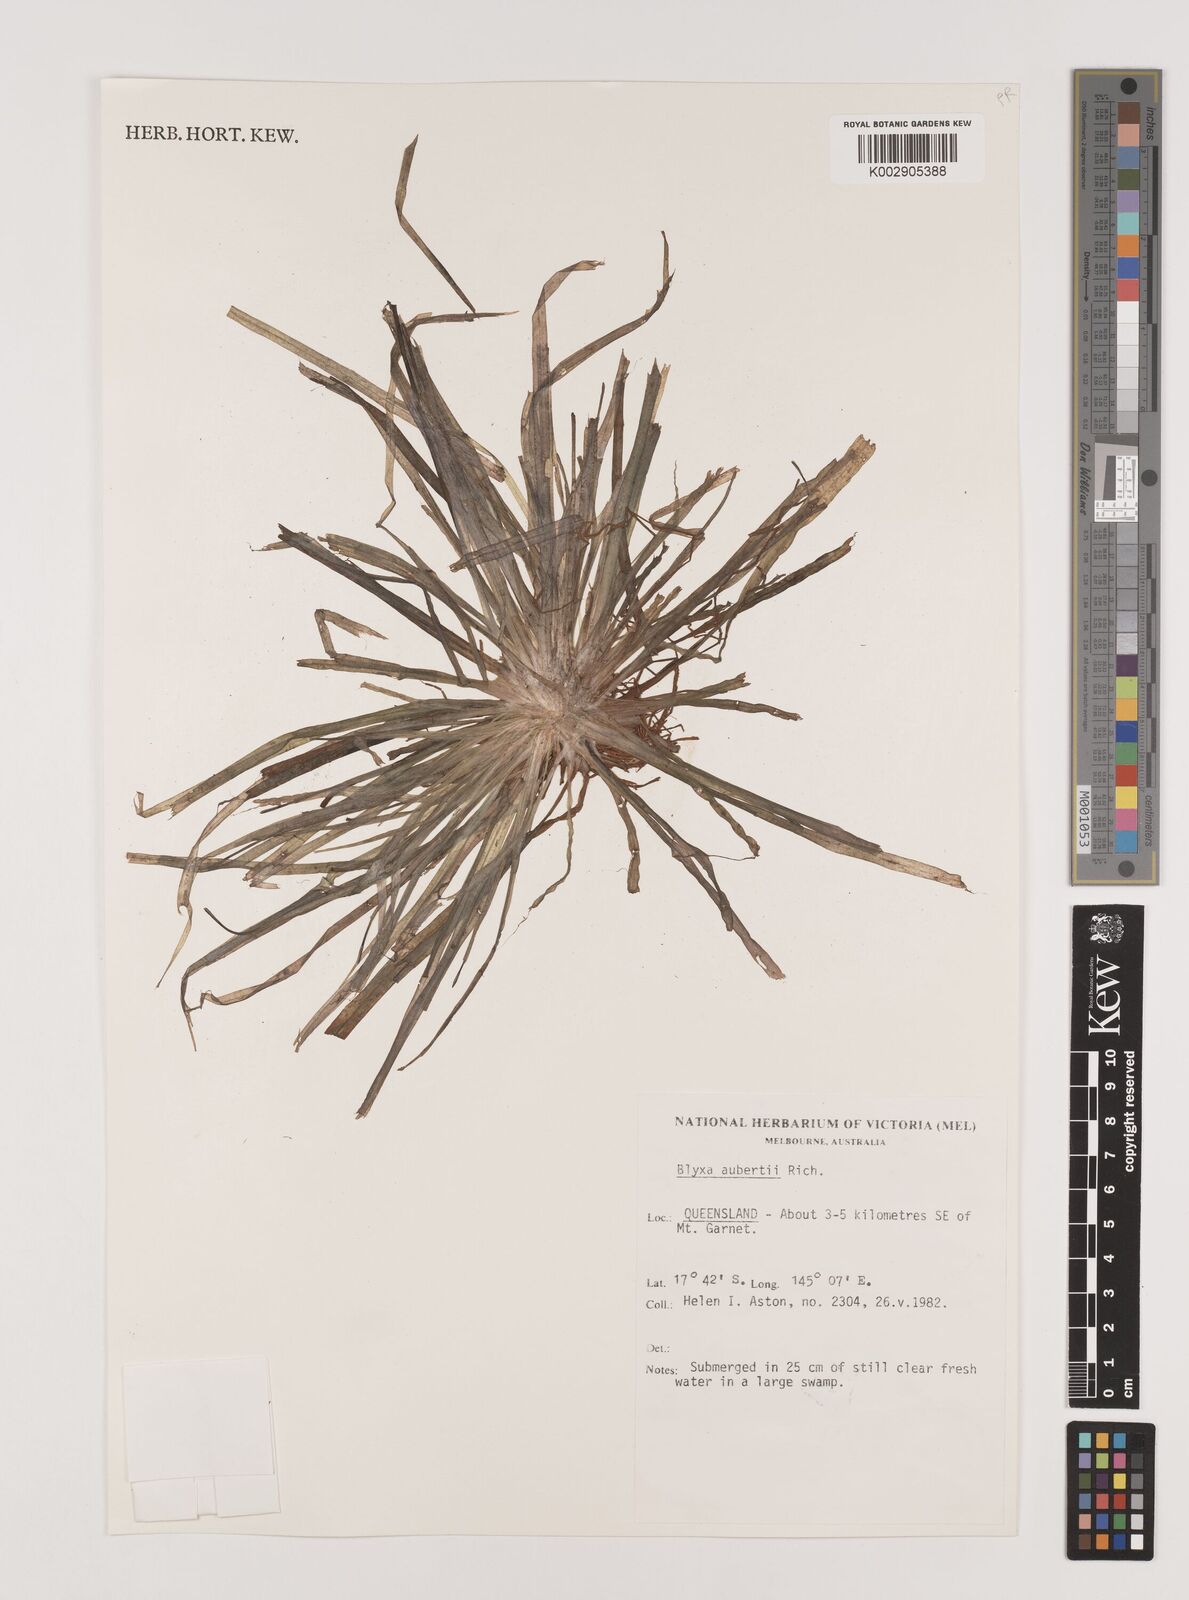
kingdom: Plantae
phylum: Tracheophyta
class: Liliopsida
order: Alismatales
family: Hydrocharitaceae
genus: Blyxa
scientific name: Blyxa aubertii
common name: Roundfruit blyxa
